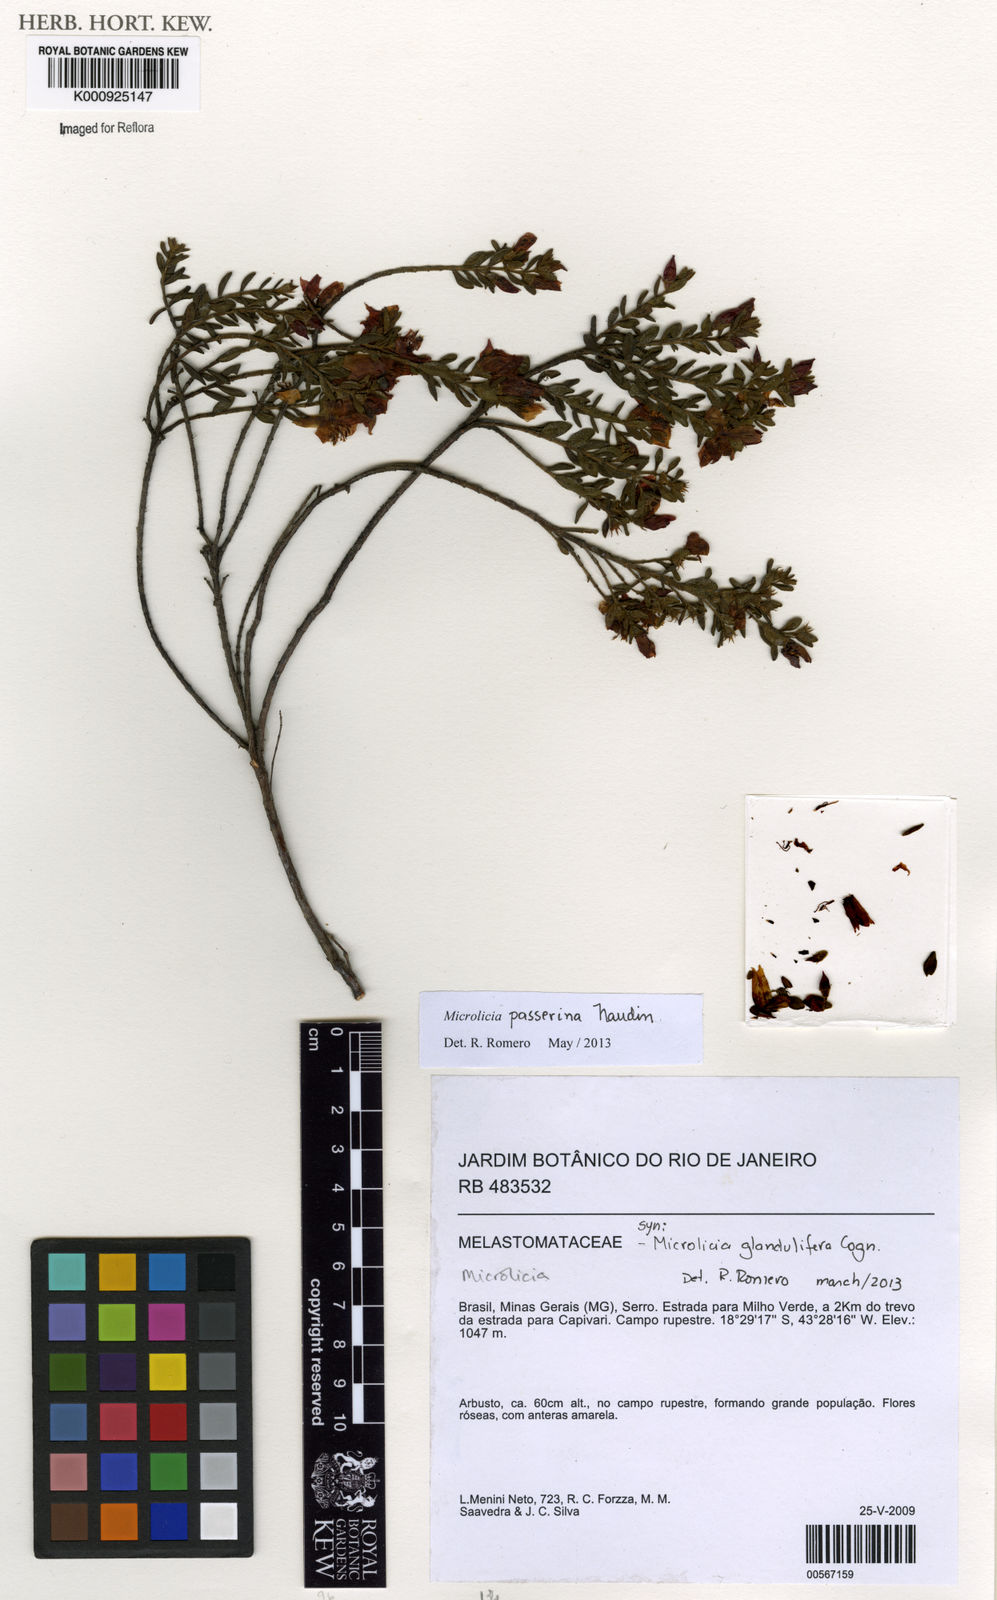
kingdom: Plantae
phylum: Tracheophyta
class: Magnoliopsida
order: Myrtales
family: Melastomataceae
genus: Microlicia
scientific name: Microlicia passerina
